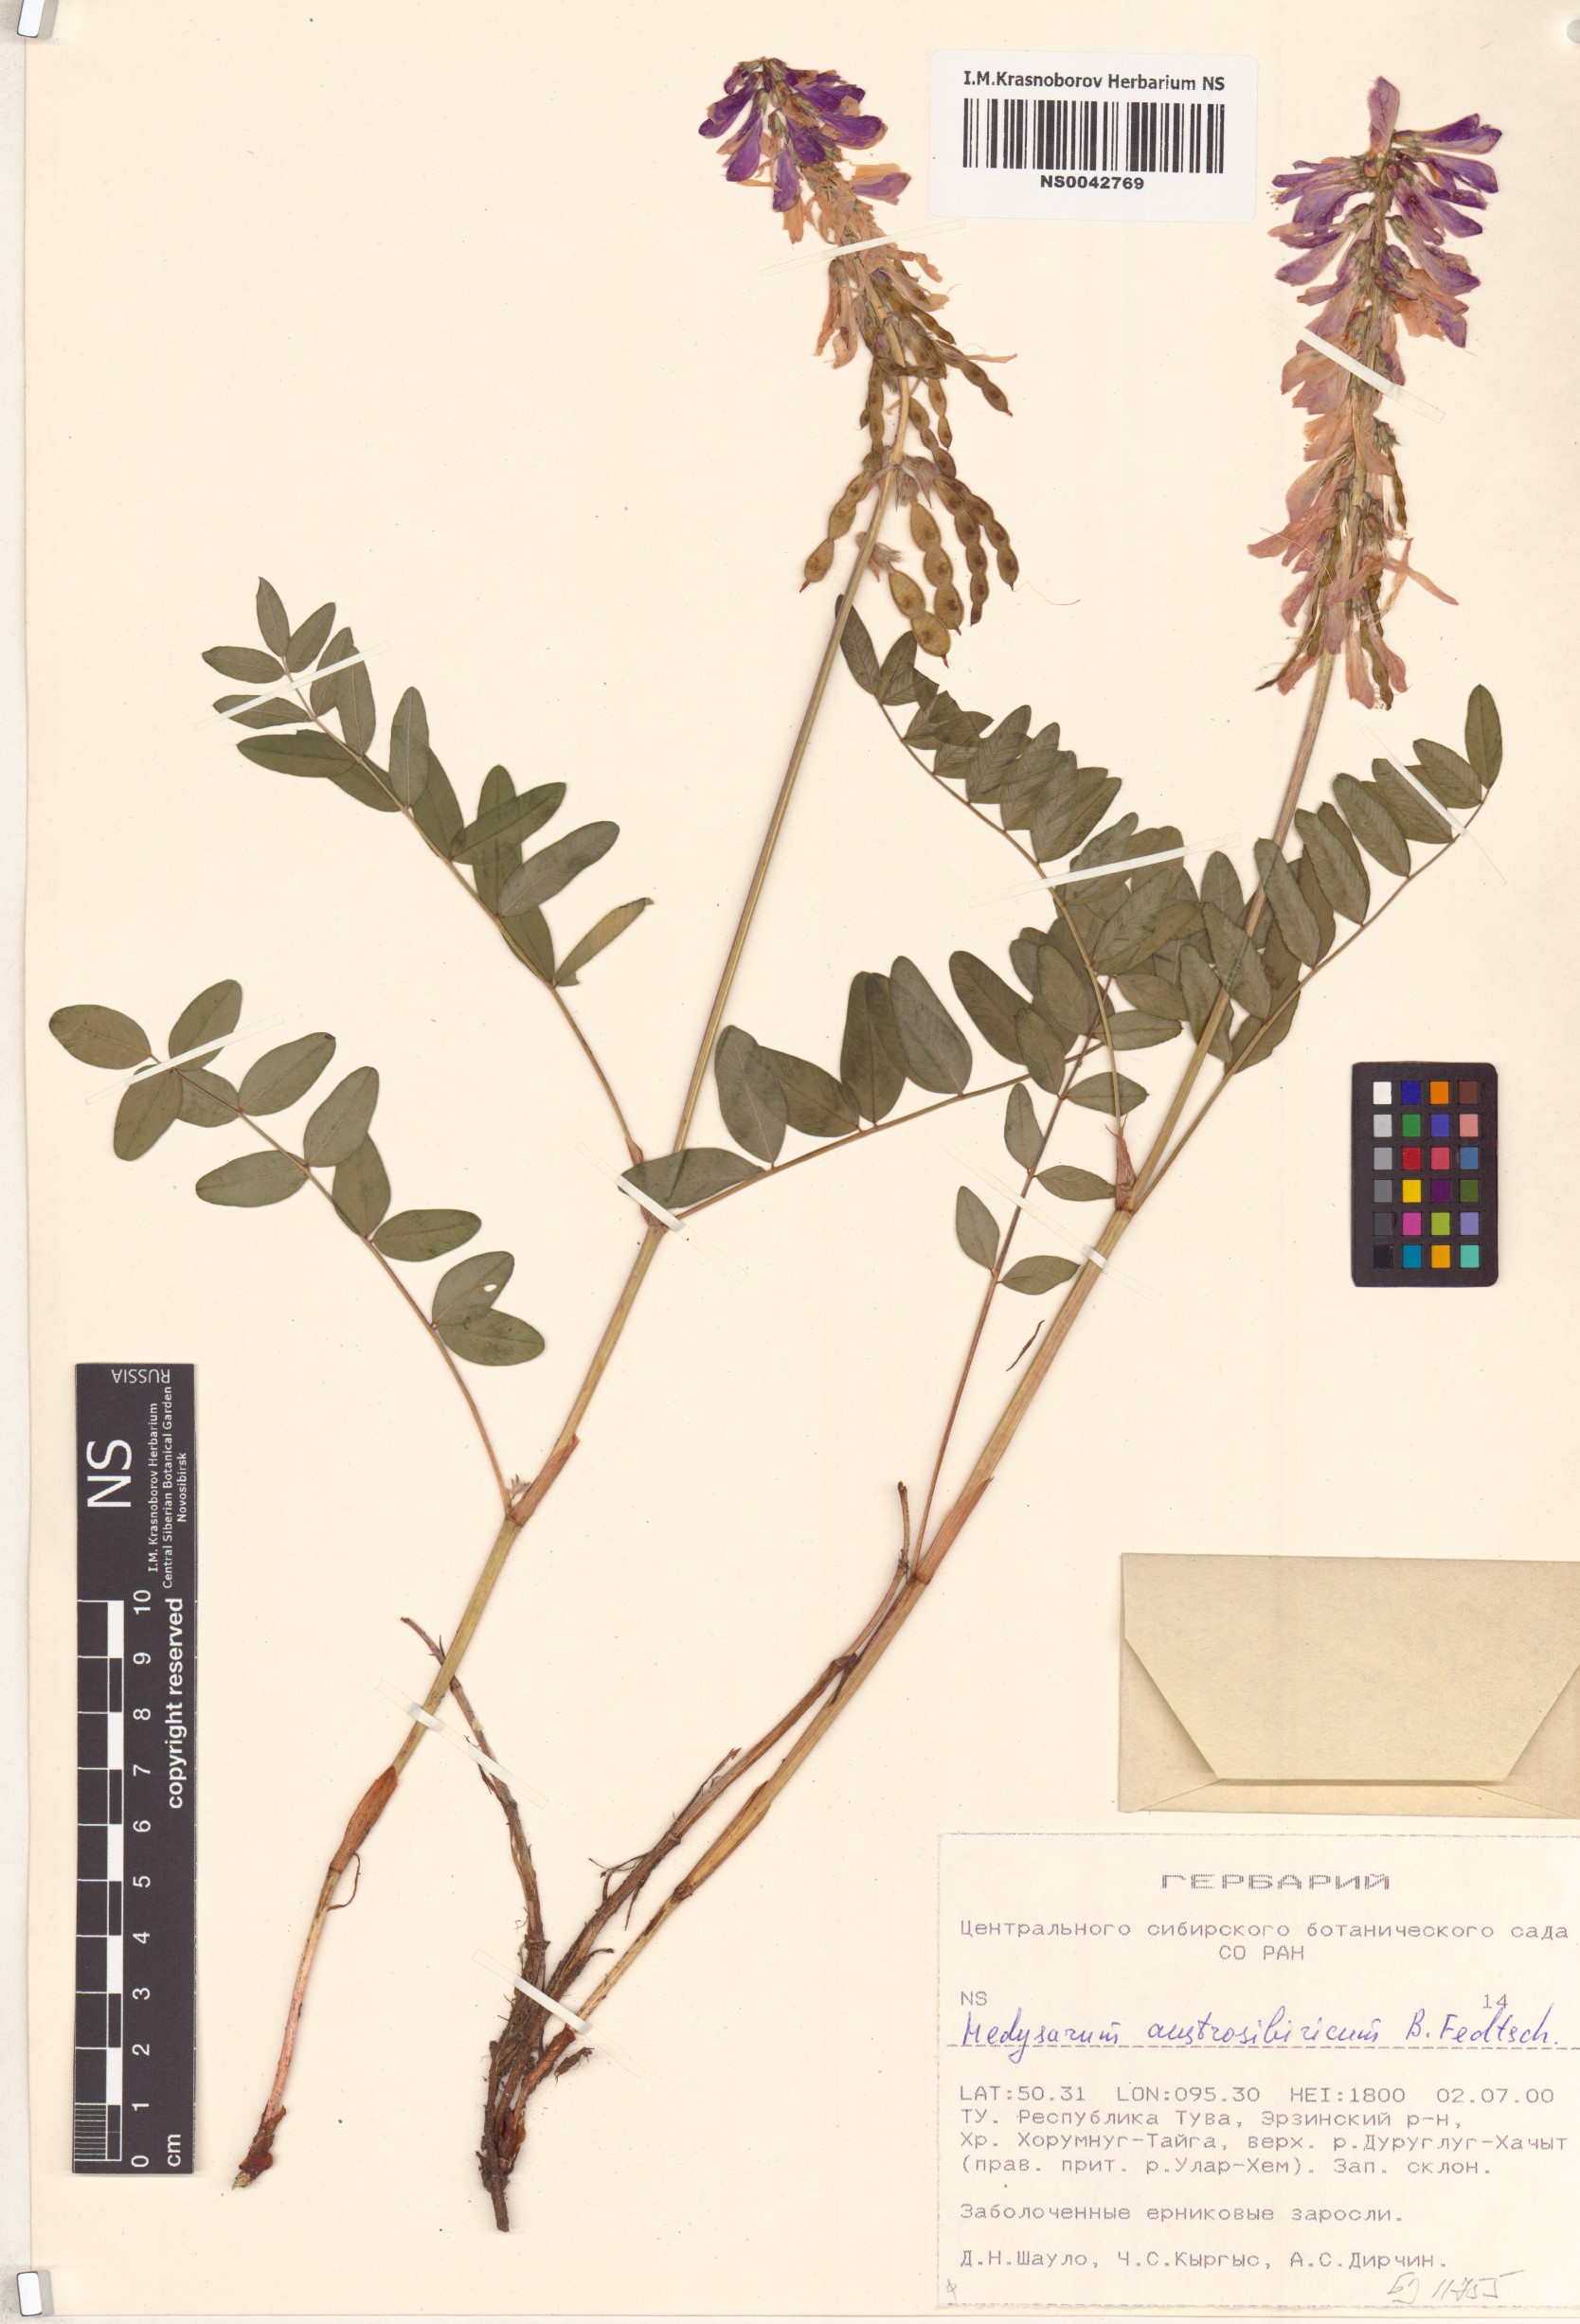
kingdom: Plantae
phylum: Tracheophyta
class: Magnoliopsida
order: Fabales
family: Fabaceae
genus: Hedysarum
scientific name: Hedysarum neglectum
